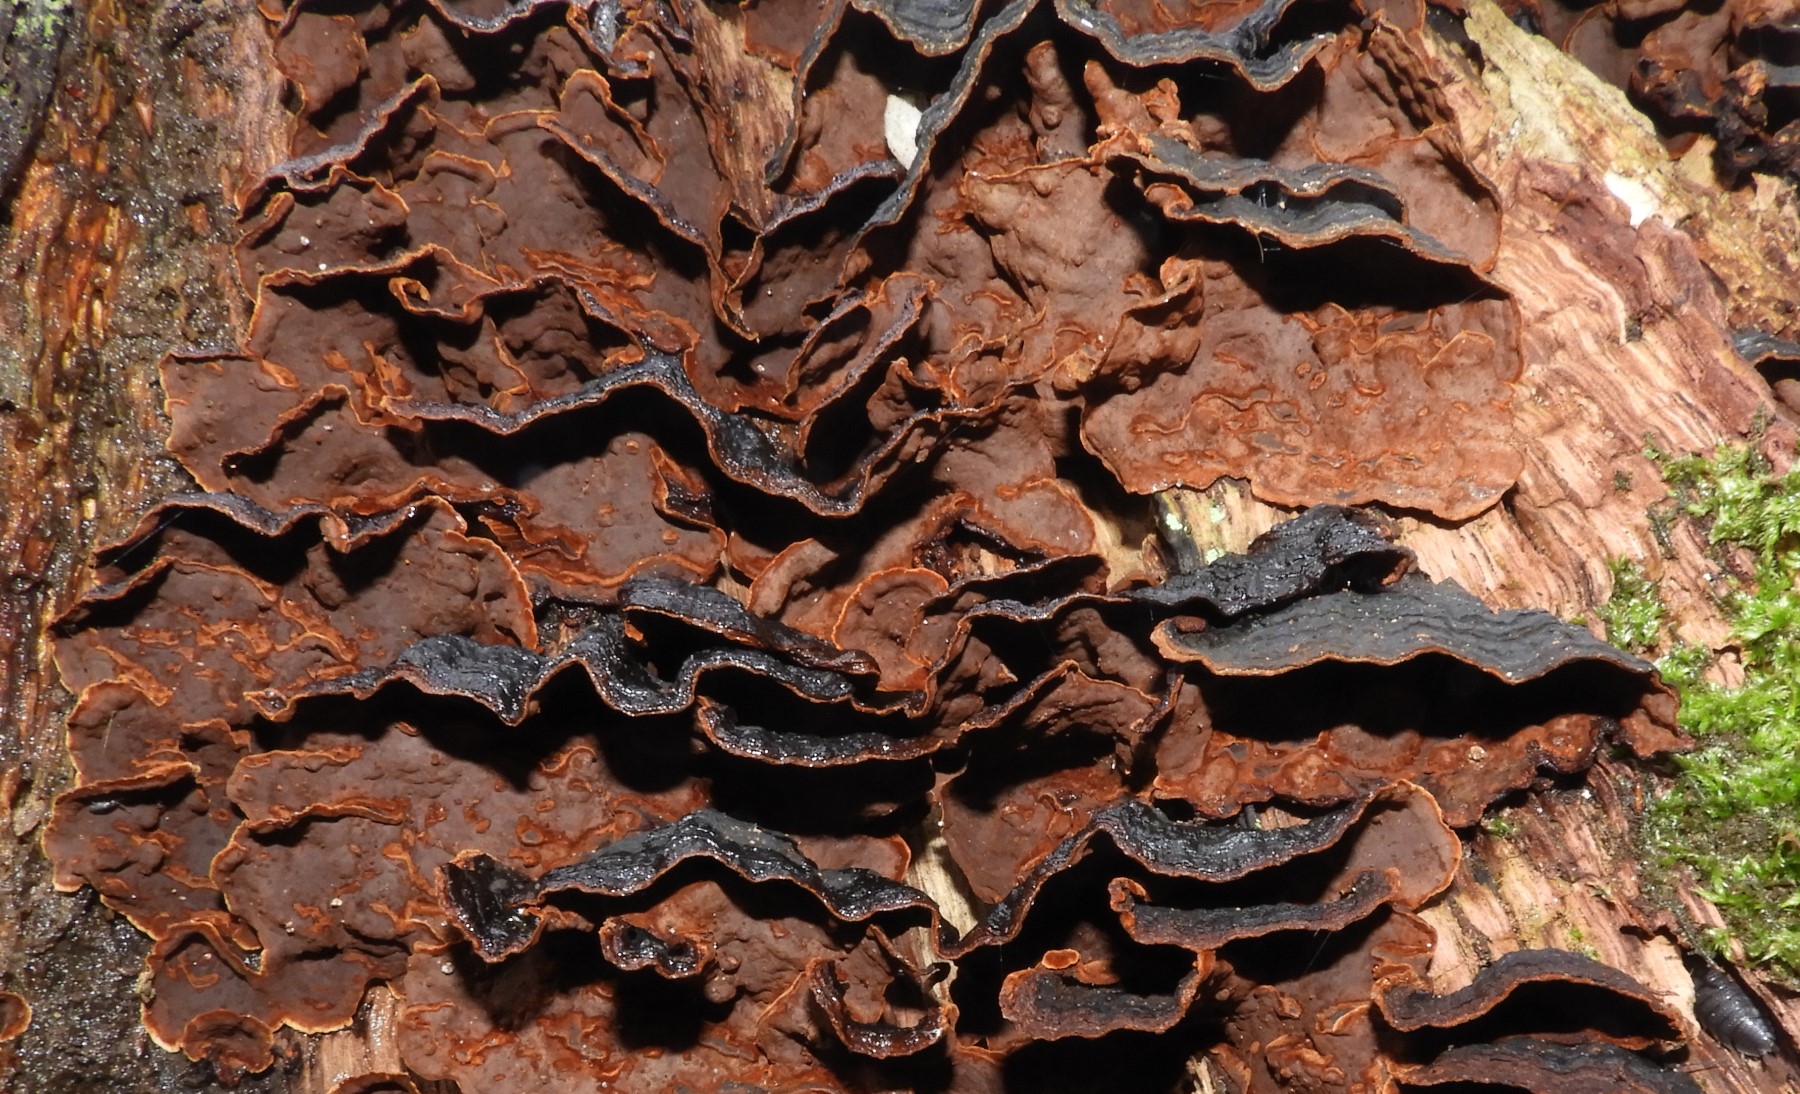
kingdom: Fungi
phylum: Basidiomycota
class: Agaricomycetes
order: Hymenochaetales
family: Hymenochaetaceae
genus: Hymenochaete
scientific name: Hymenochaete rubiginosa
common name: stiv ruslædersvamp
